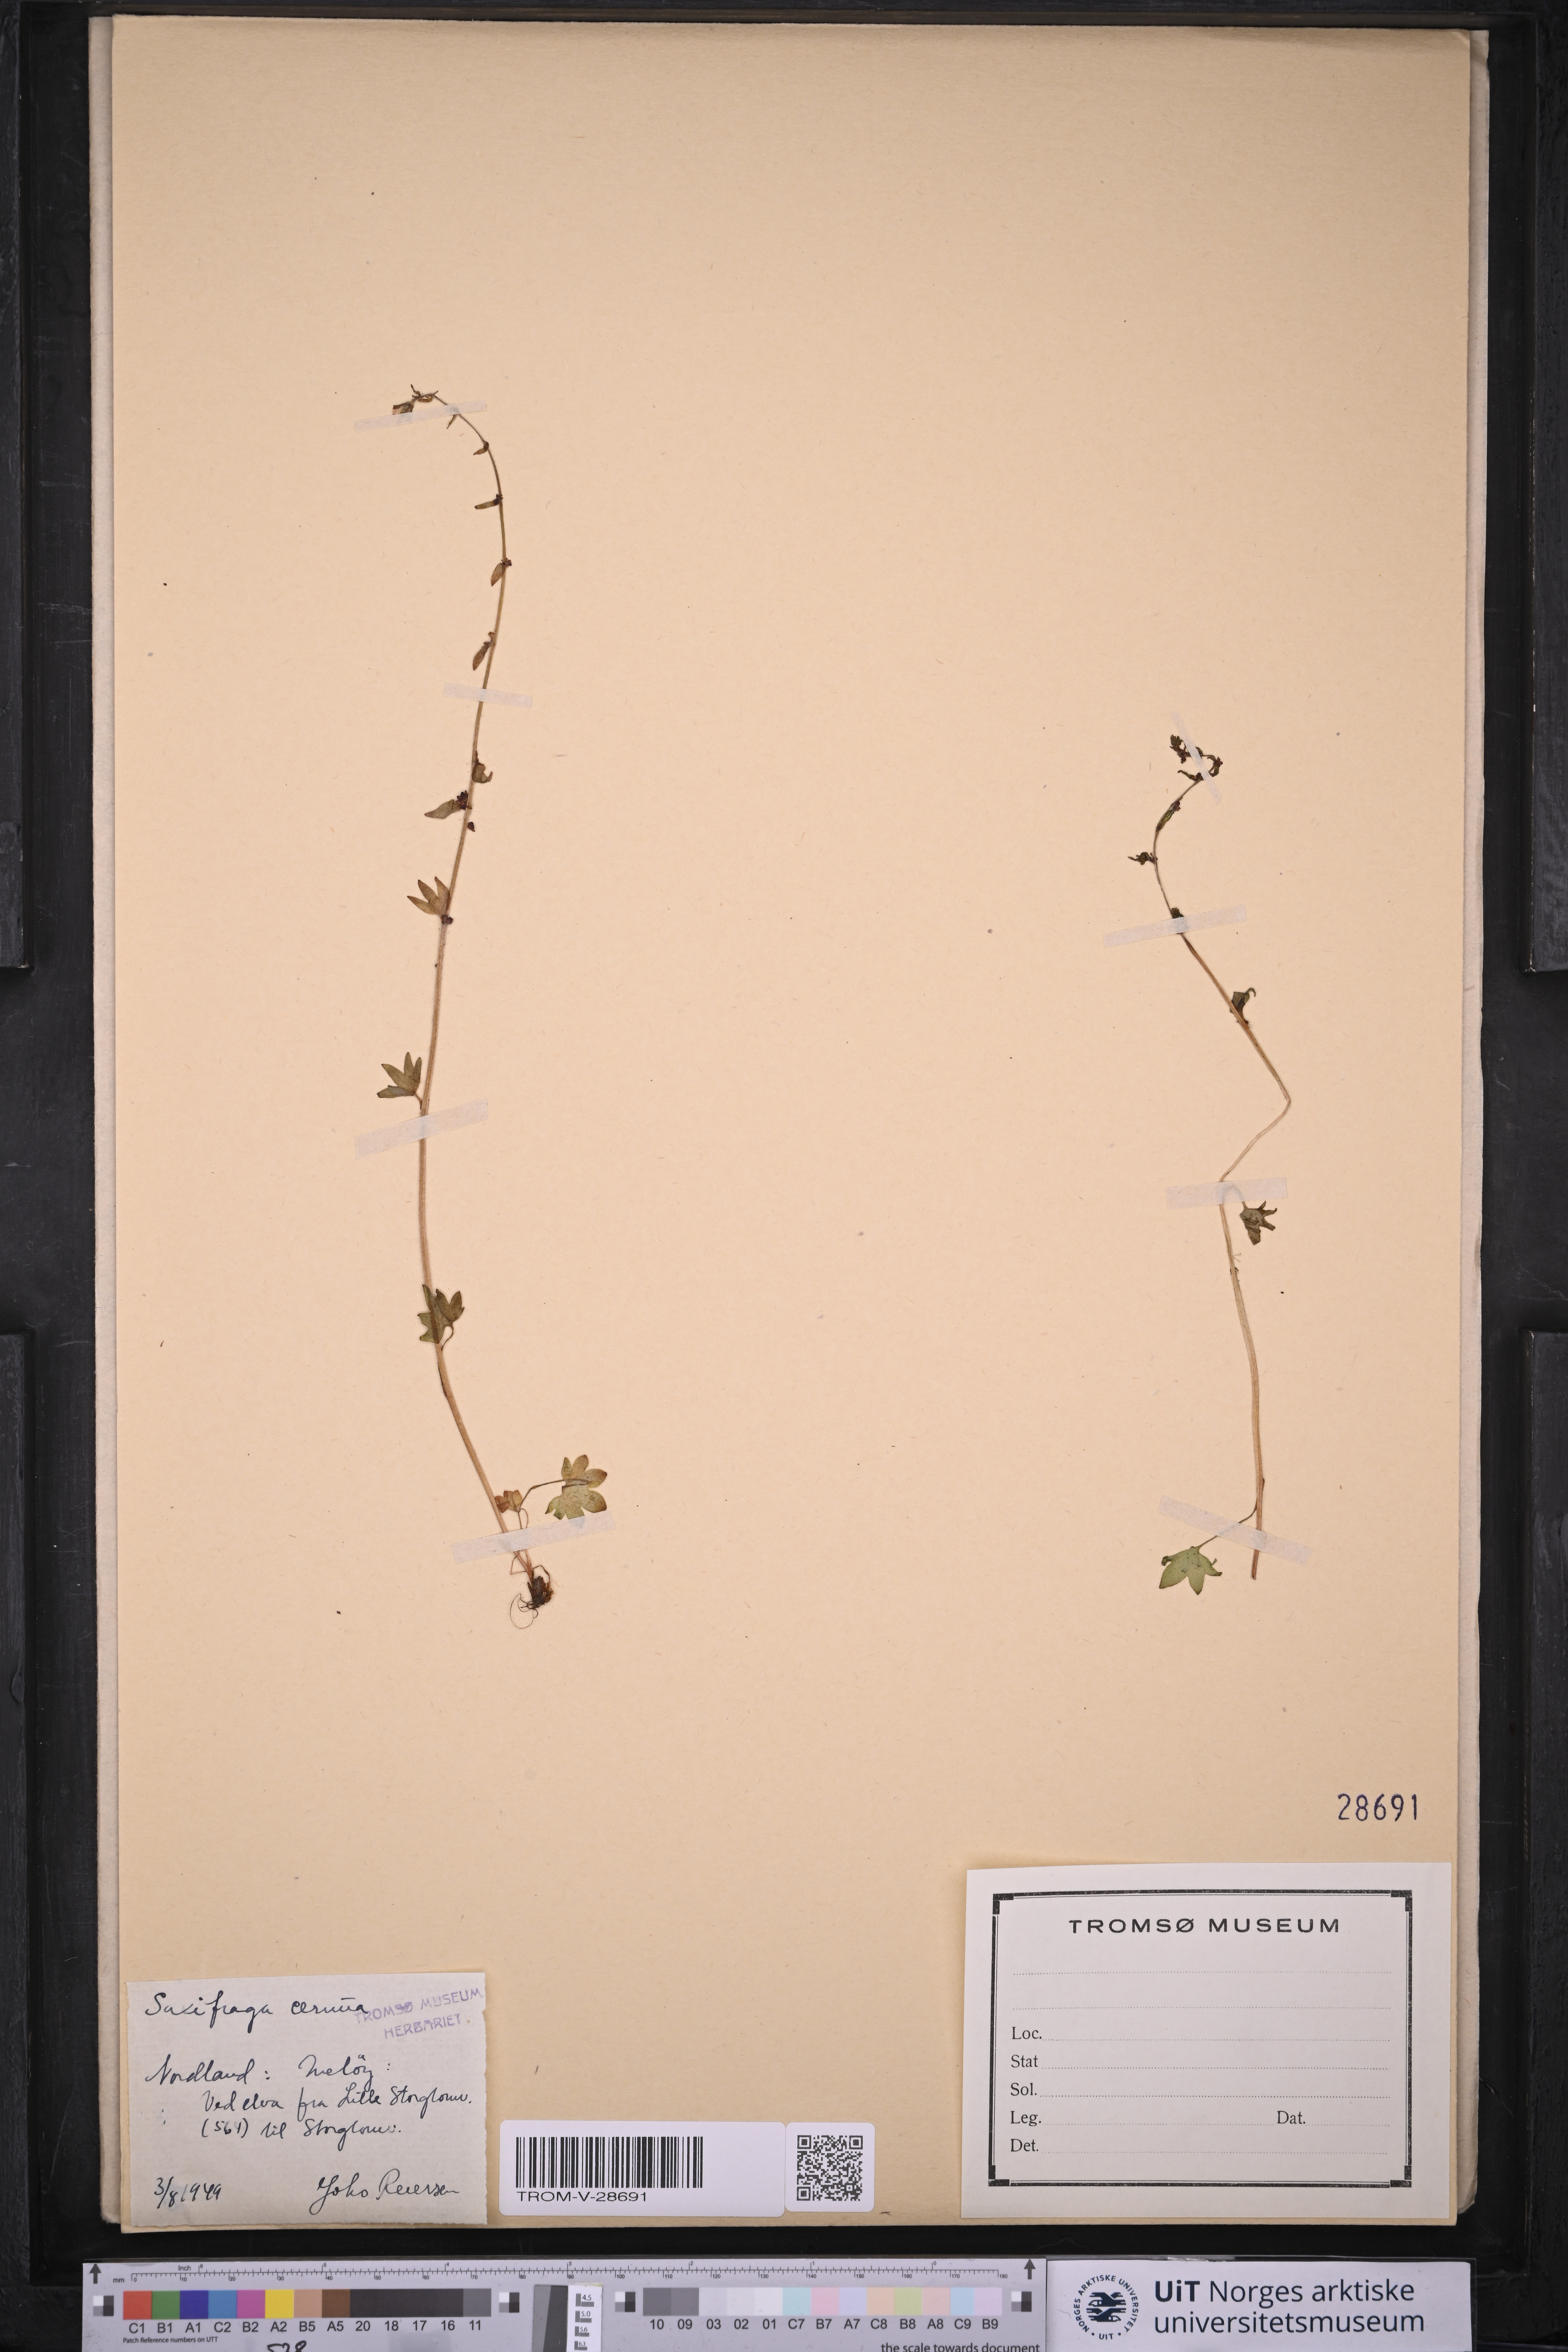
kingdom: Plantae
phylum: Tracheophyta
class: Magnoliopsida
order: Saxifragales
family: Saxifragaceae
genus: Saxifraga
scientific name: Saxifraga cernua
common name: Drooping saxifrage
